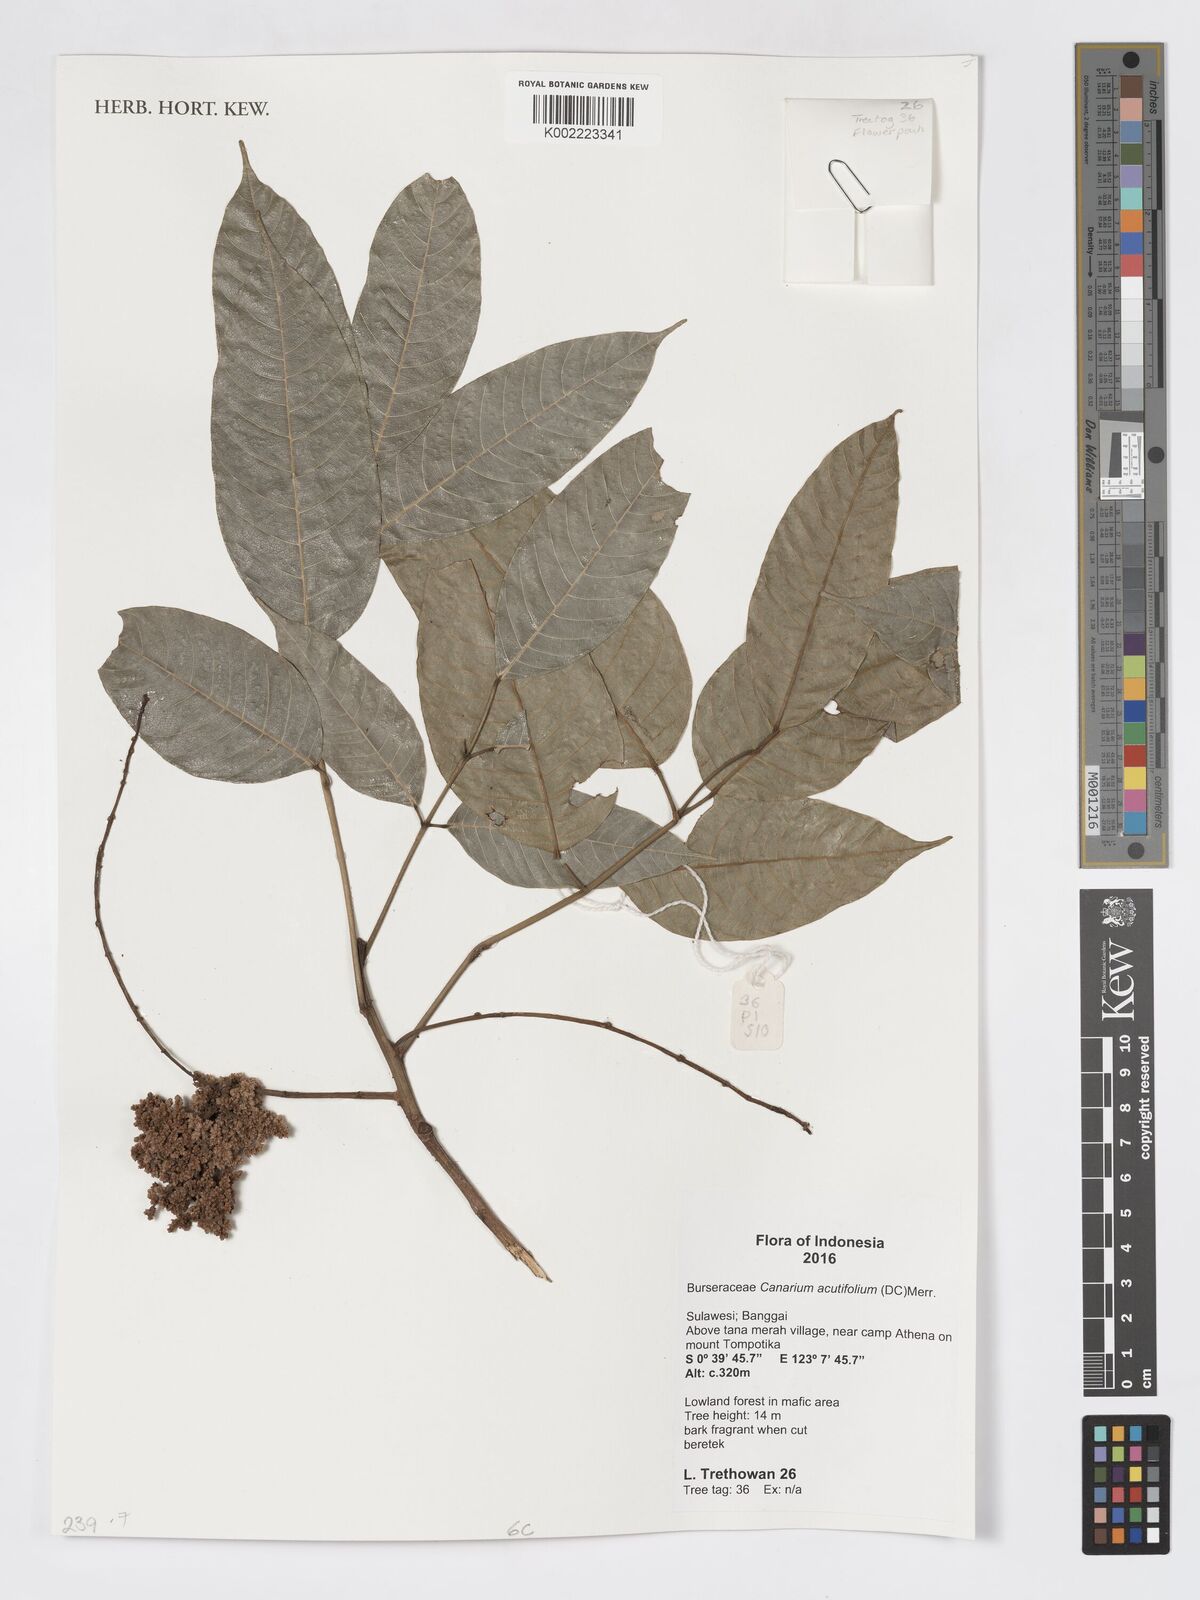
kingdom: Plantae
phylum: Tracheophyta
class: Magnoliopsida
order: Sapindales
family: Burseraceae
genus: Canarium
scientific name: Canarium acutifolium
